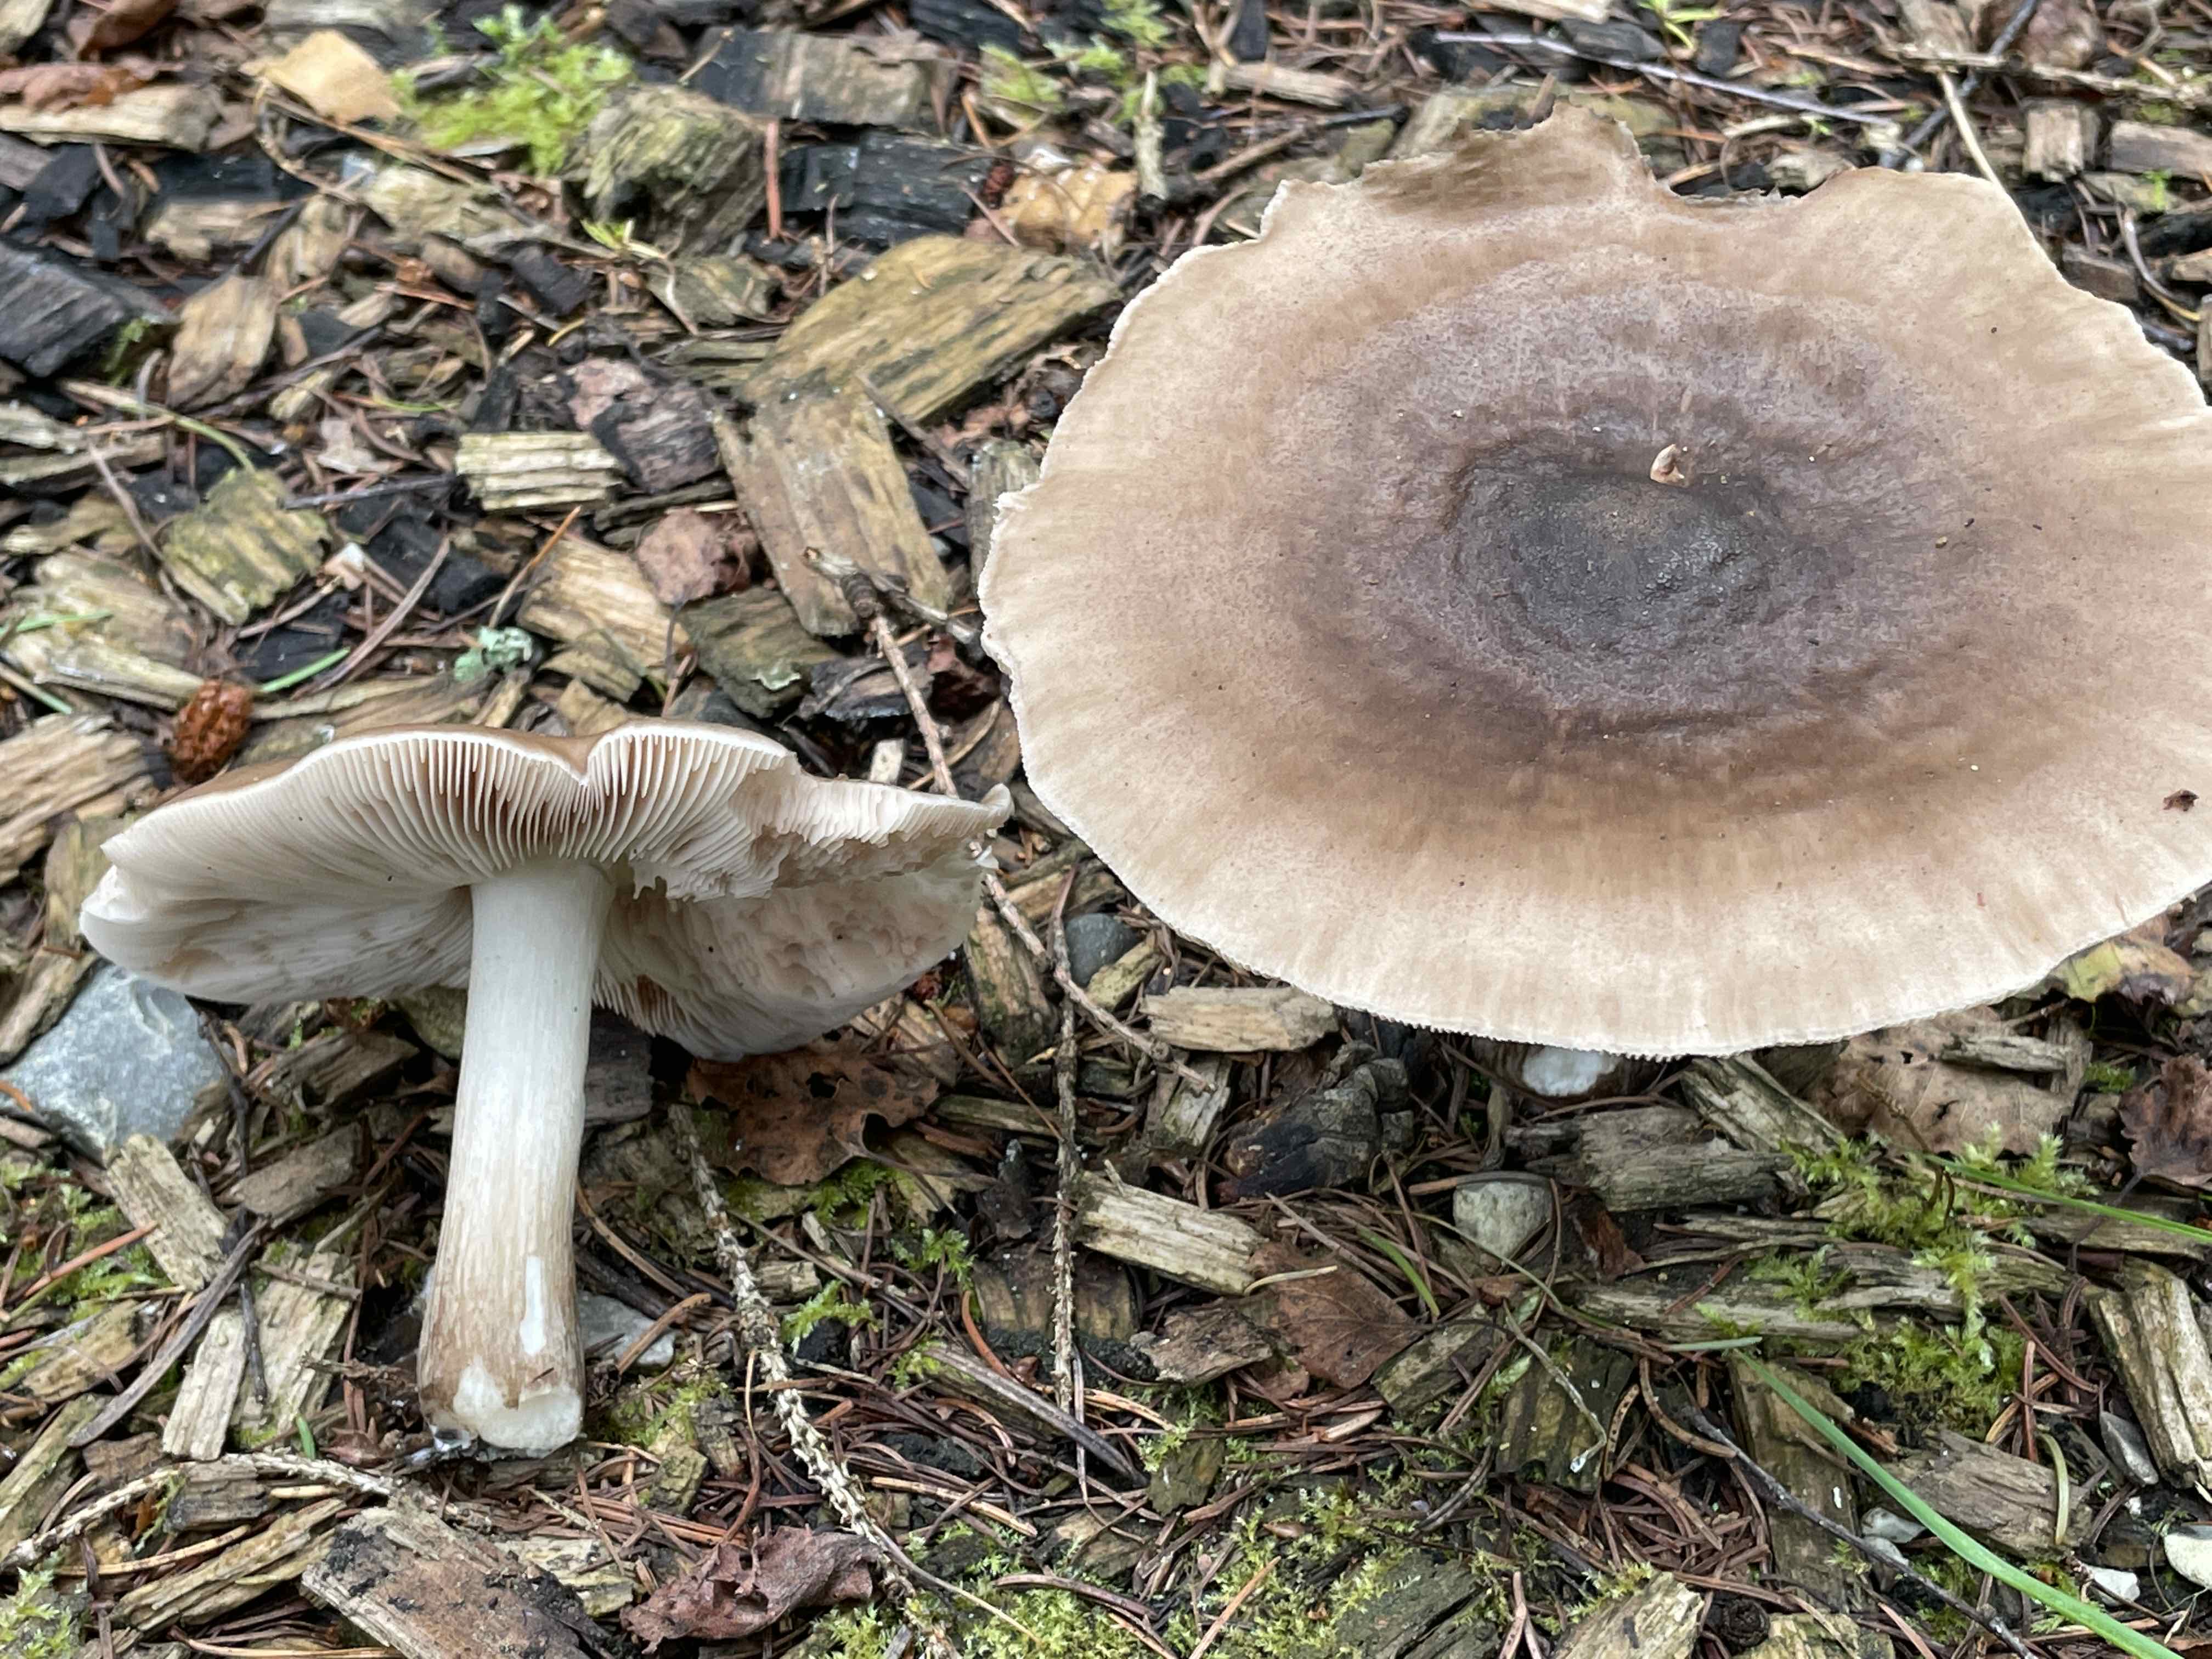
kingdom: Fungi
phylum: Basidiomycota
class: Agaricomycetes
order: Agaricales
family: Pluteaceae
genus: Pluteus
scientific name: Pluteus
